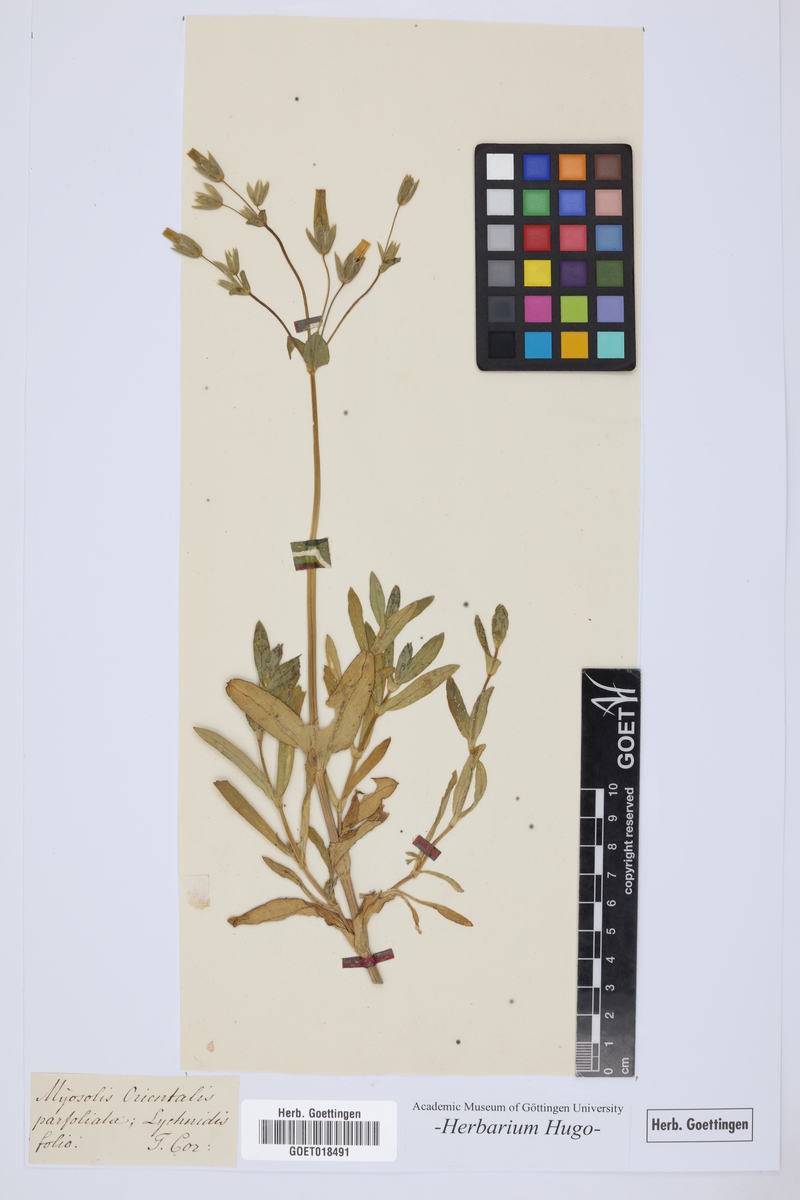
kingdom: Plantae
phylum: Tracheophyta
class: Magnoliopsida
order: Boraginales
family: Boraginaceae
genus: Myosotis
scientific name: Myosotis
